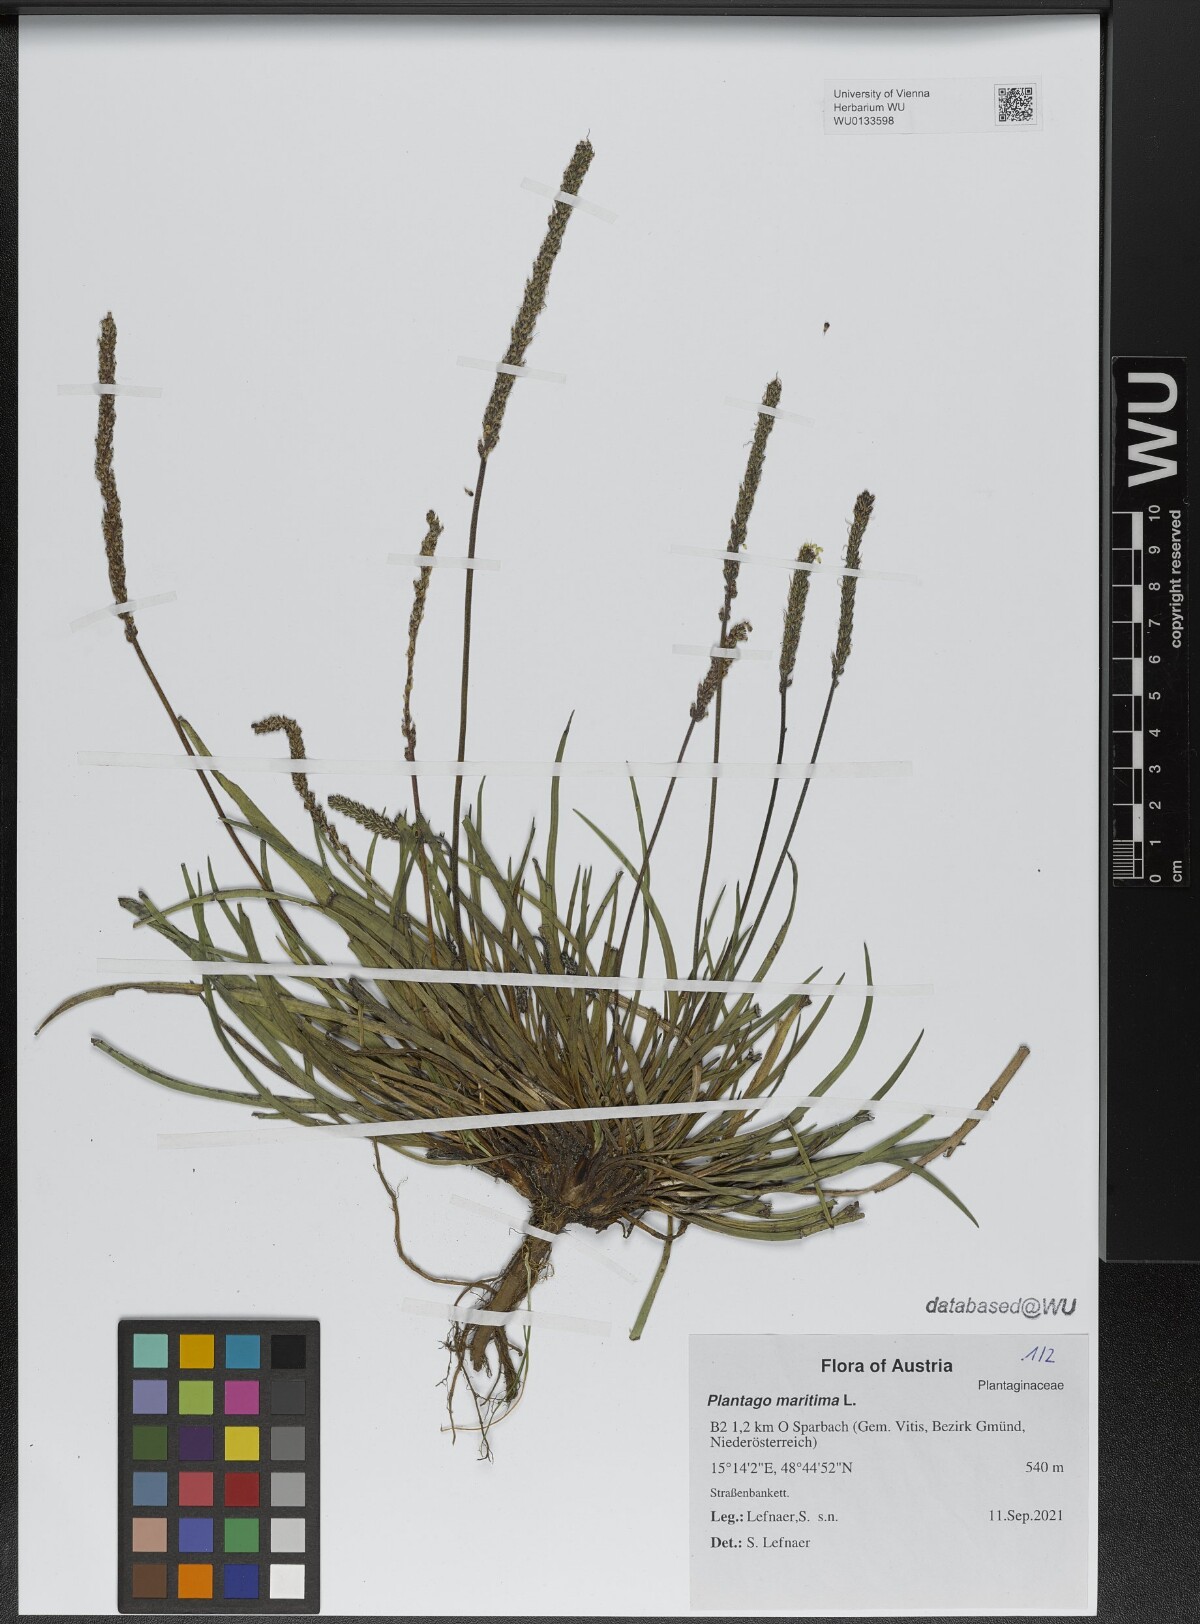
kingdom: Plantae
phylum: Tracheophyta
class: Magnoliopsida
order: Lamiales
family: Plantaginaceae
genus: Plantago
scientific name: Plantago maritima
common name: Sea plantain
